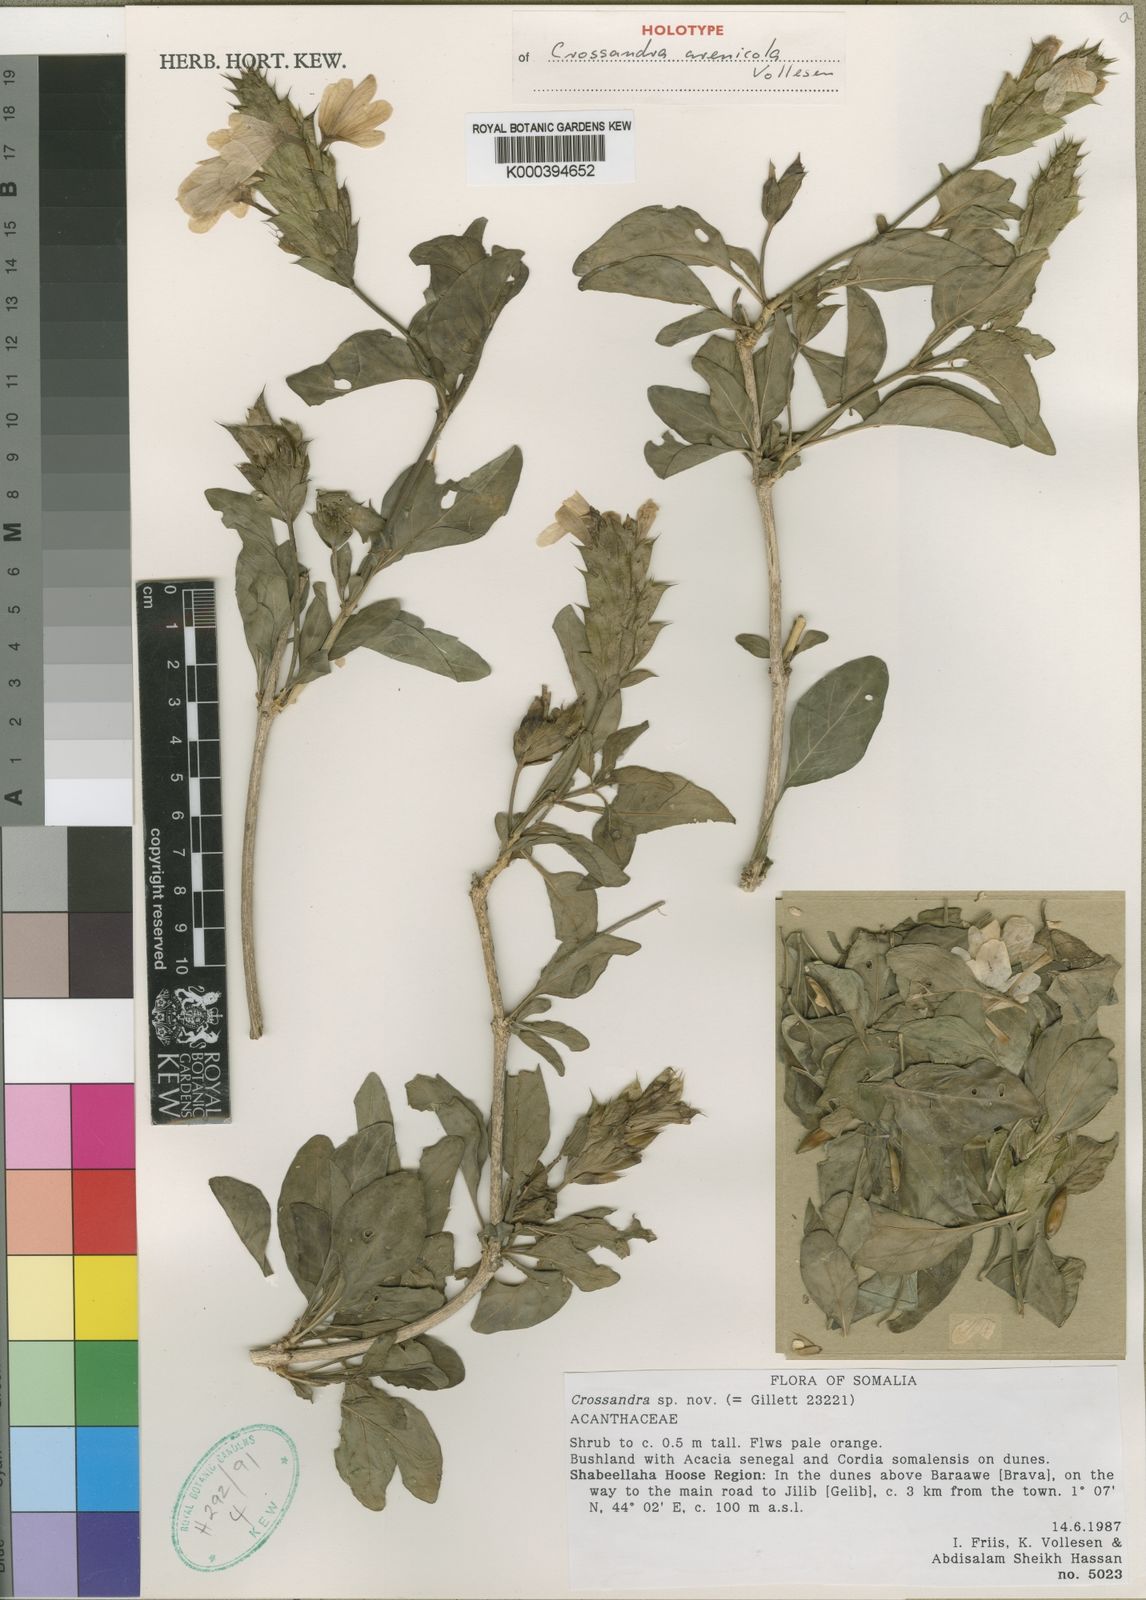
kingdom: Plantae
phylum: Tracheophyta
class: Magnoliopsida
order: Lamiales
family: Acanthaceae
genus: Crossandra
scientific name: Crossandra arenicola
